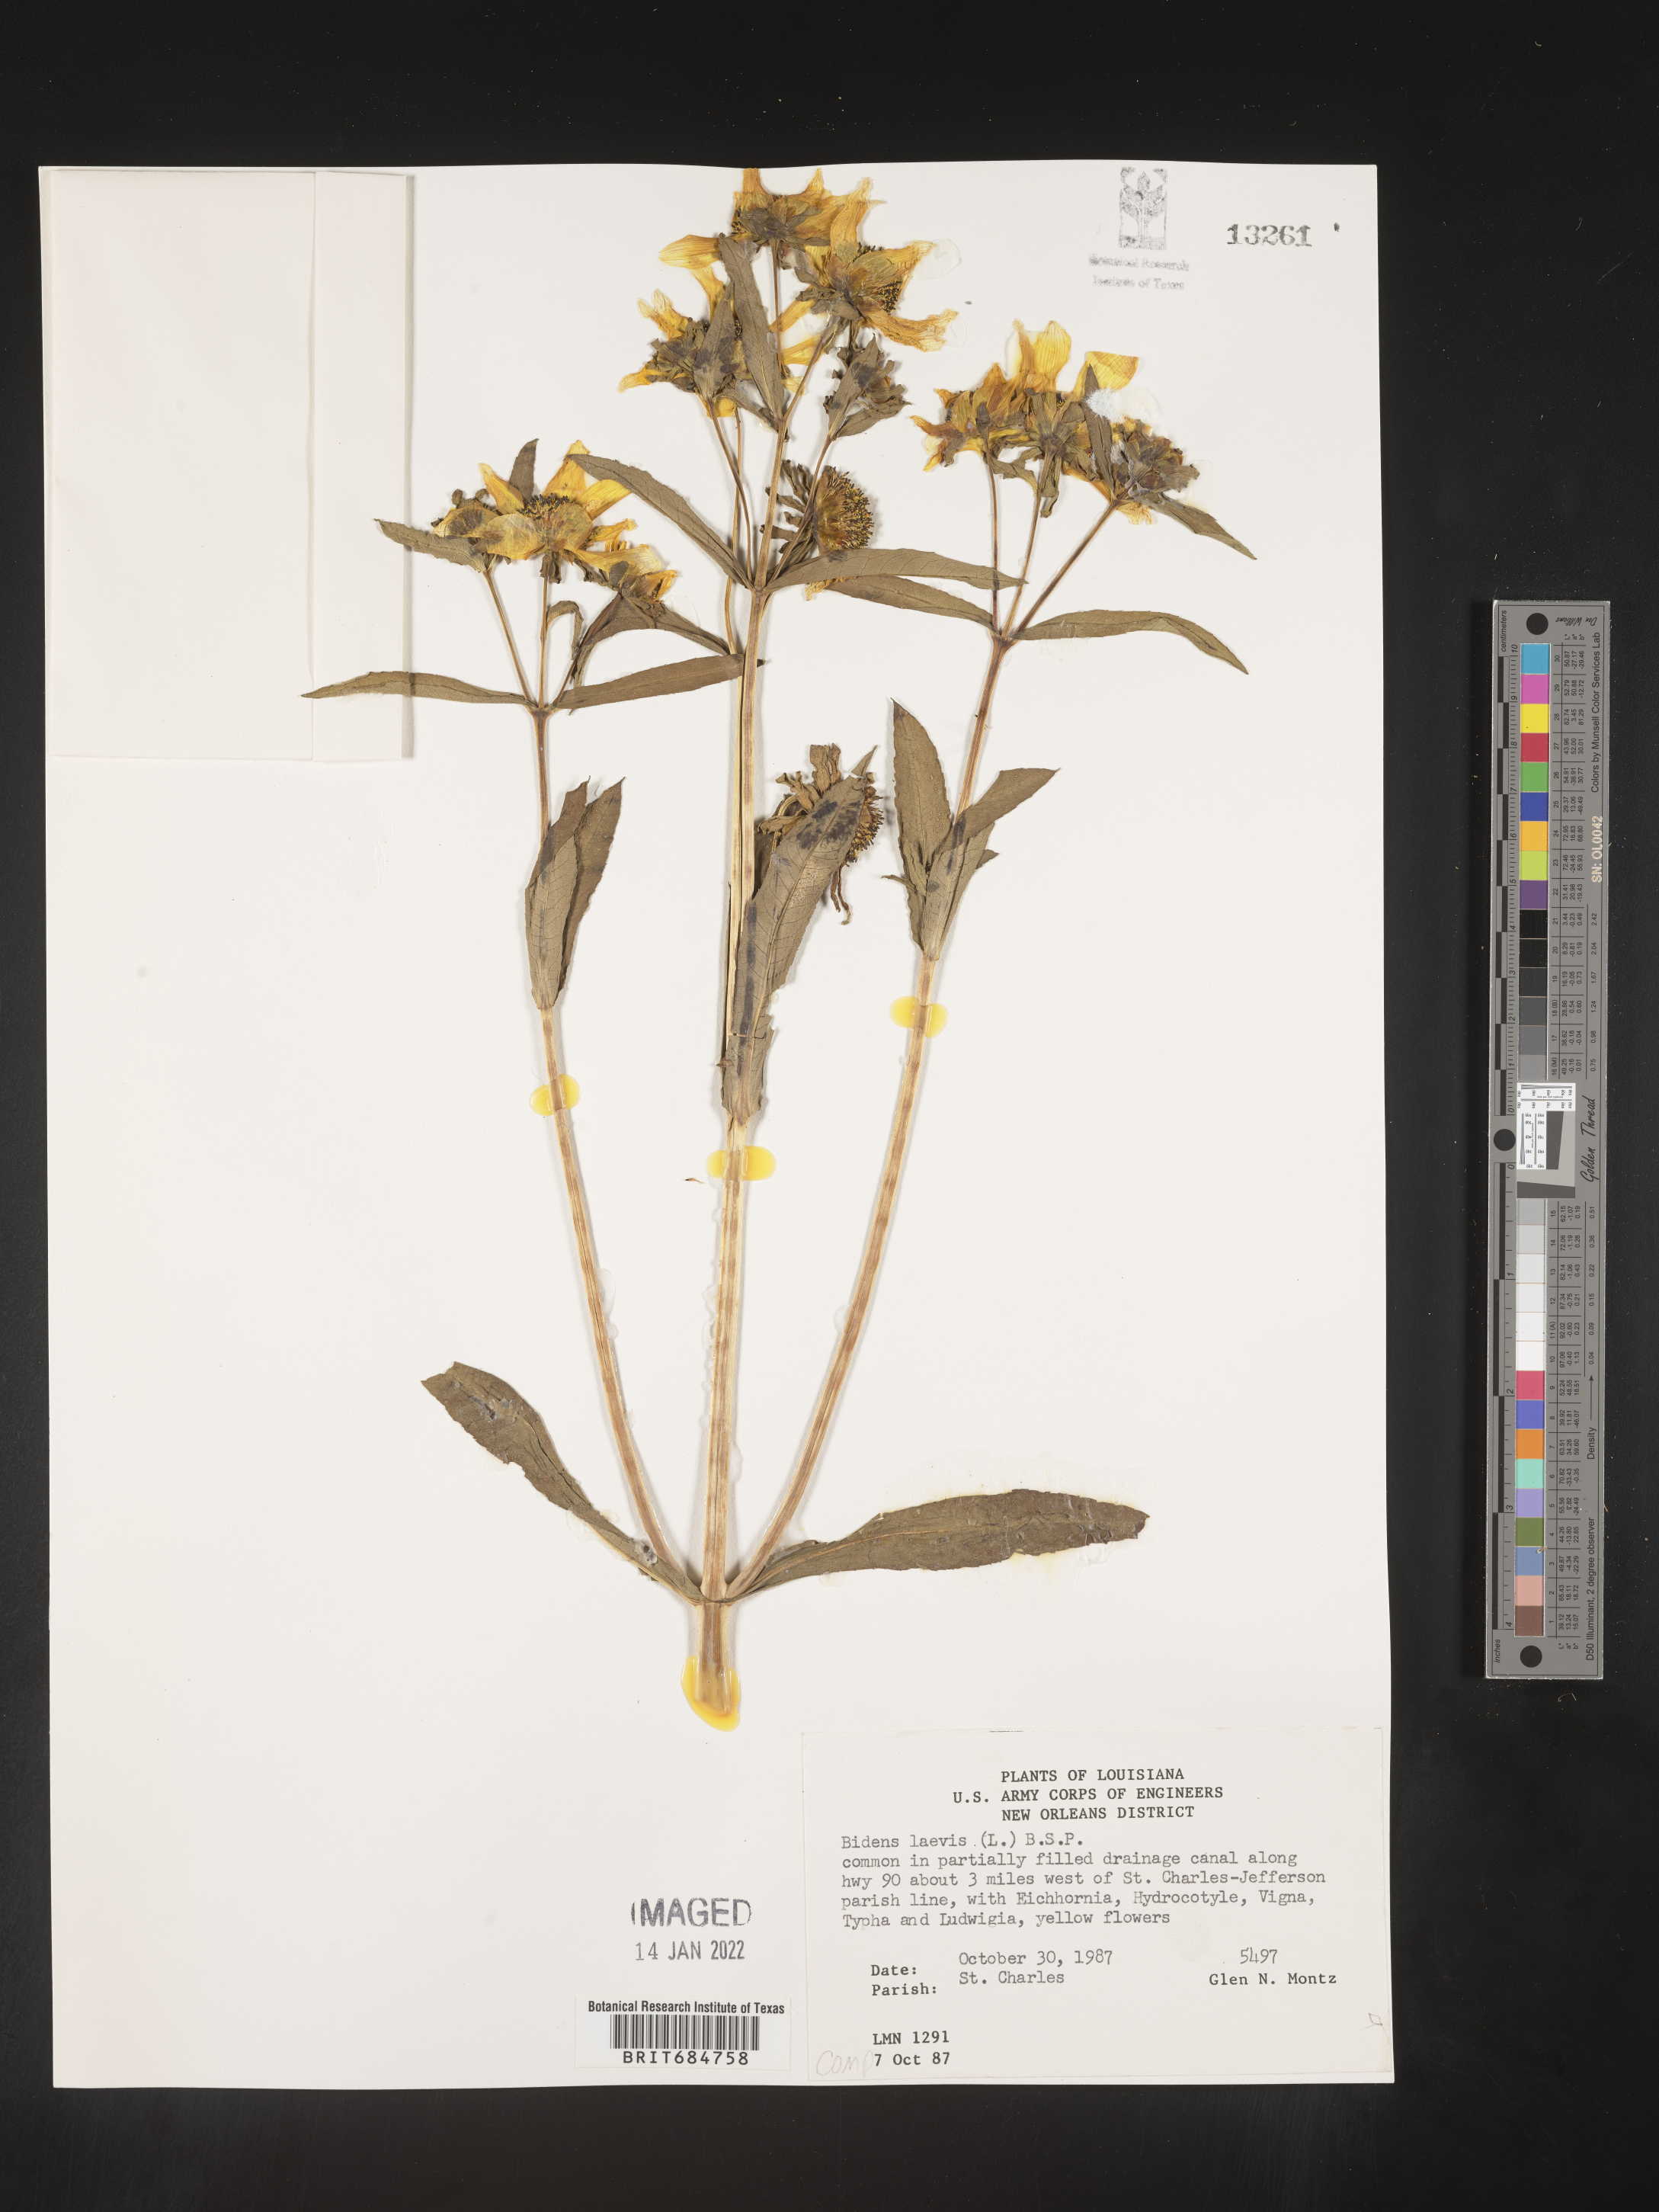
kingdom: Plantae
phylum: Tracheophyta
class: Magnoliopsida
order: Asterales
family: Asteraceae
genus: Bidens
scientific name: Bidens laevis
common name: Larger bur-marigold
